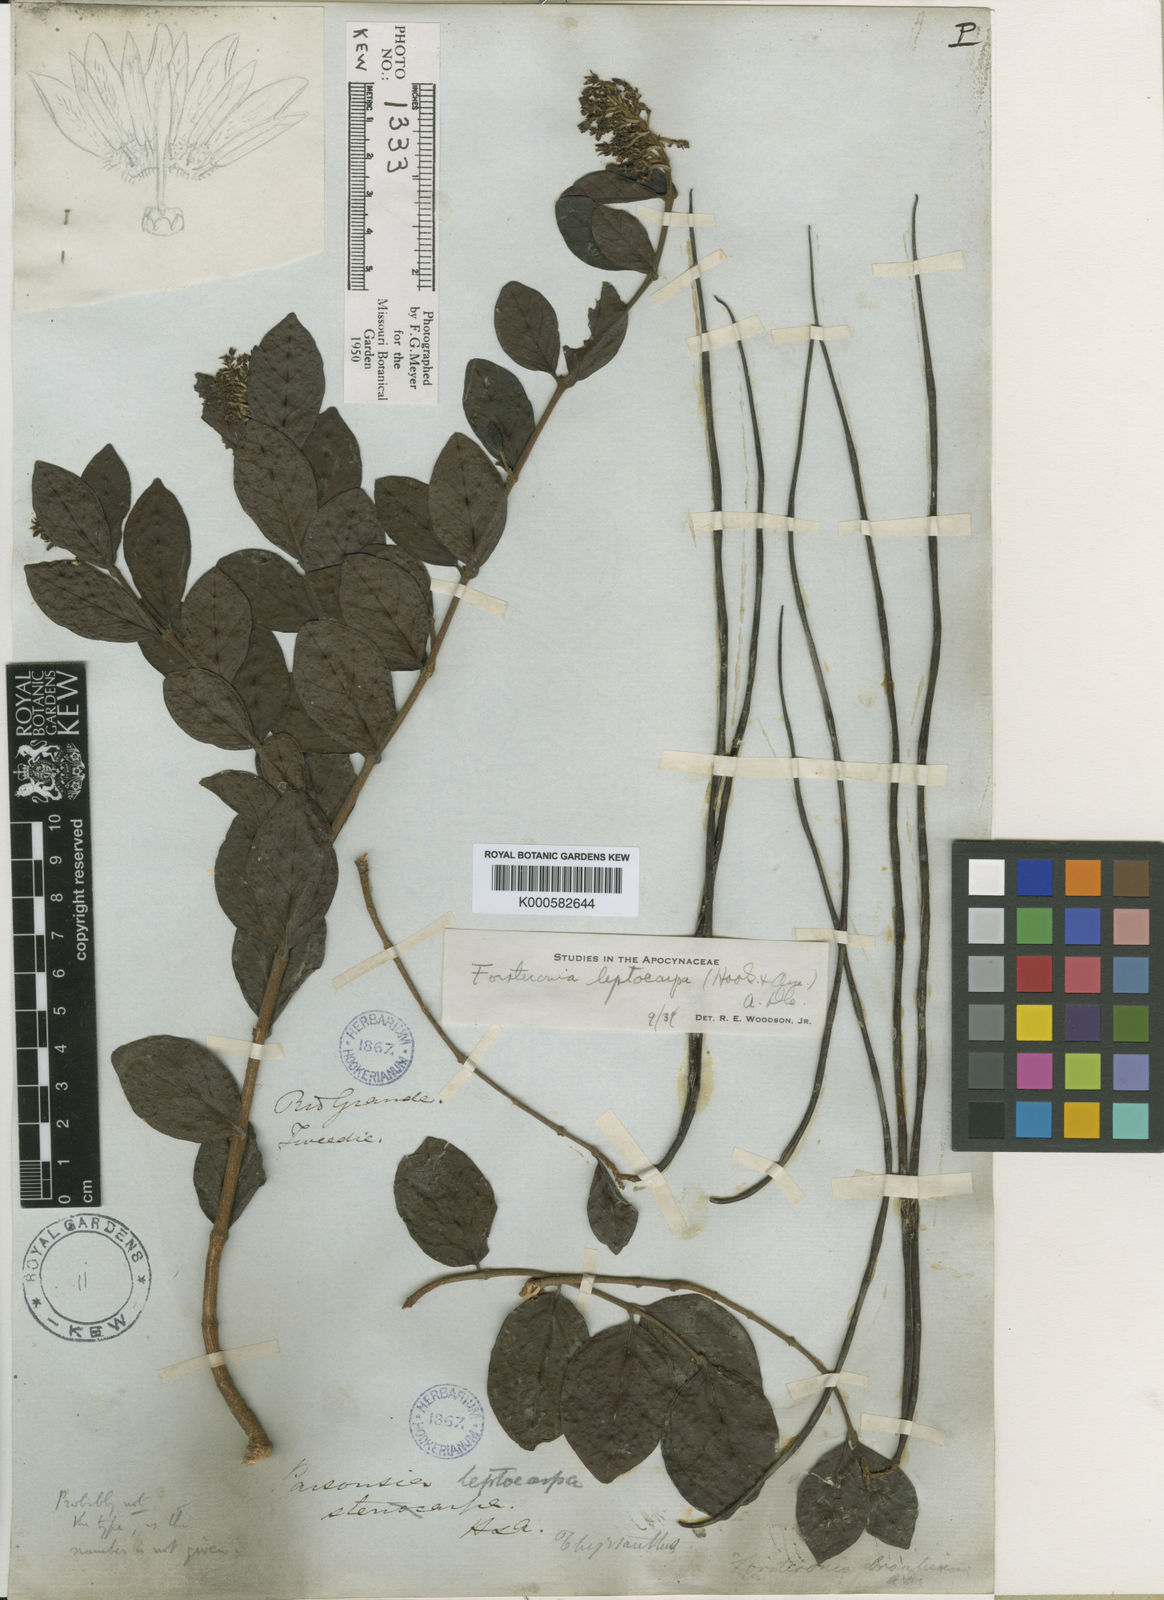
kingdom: Plantae
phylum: Tracheophyta
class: Magnoliopsida
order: Gentianales
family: Apocynaceae
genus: Forsteronia
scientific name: Forsteronia leptocarpa
